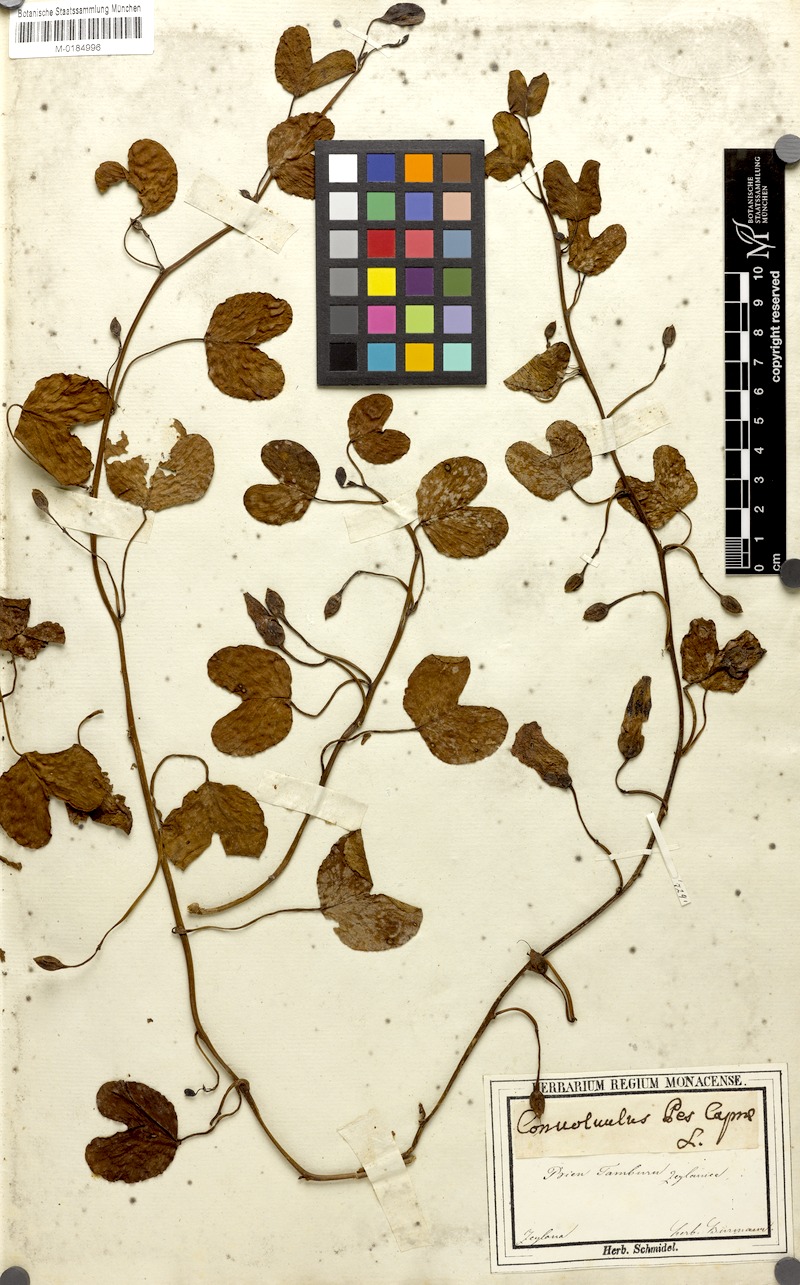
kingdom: Plantae
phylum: Tracheophyta
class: Magnoliopsida
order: Solanales
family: Convolvulaceae
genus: Ipomoea
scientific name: Ipomoea pes-caprae
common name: Beach morning glory
